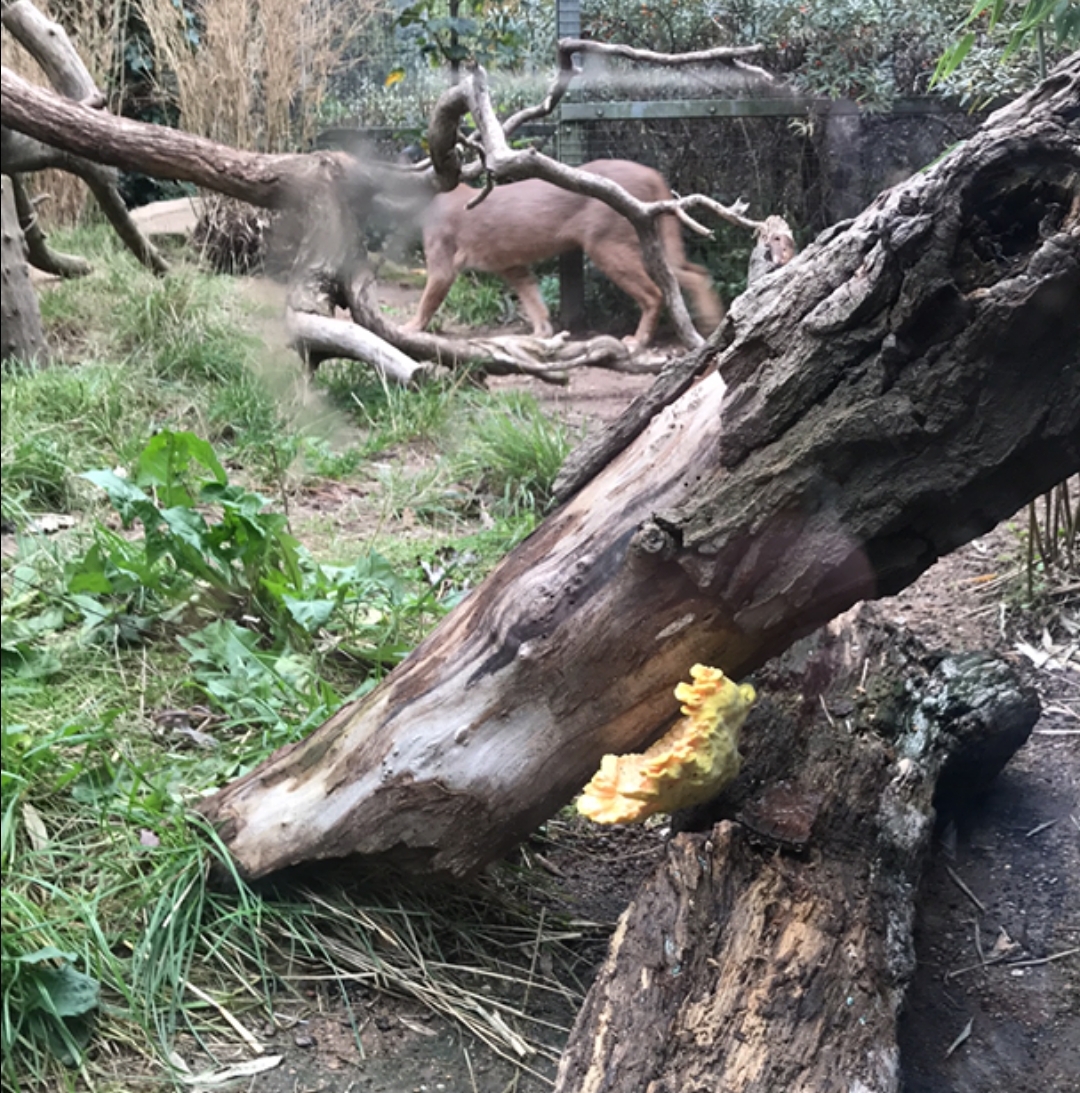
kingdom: Fungi
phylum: Basidiomycota
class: Agaricomycetes
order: Polyporales
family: Laetiporaceae
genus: Laetiporus
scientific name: Laetiporus sulphureus
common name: svovlporesvamp
